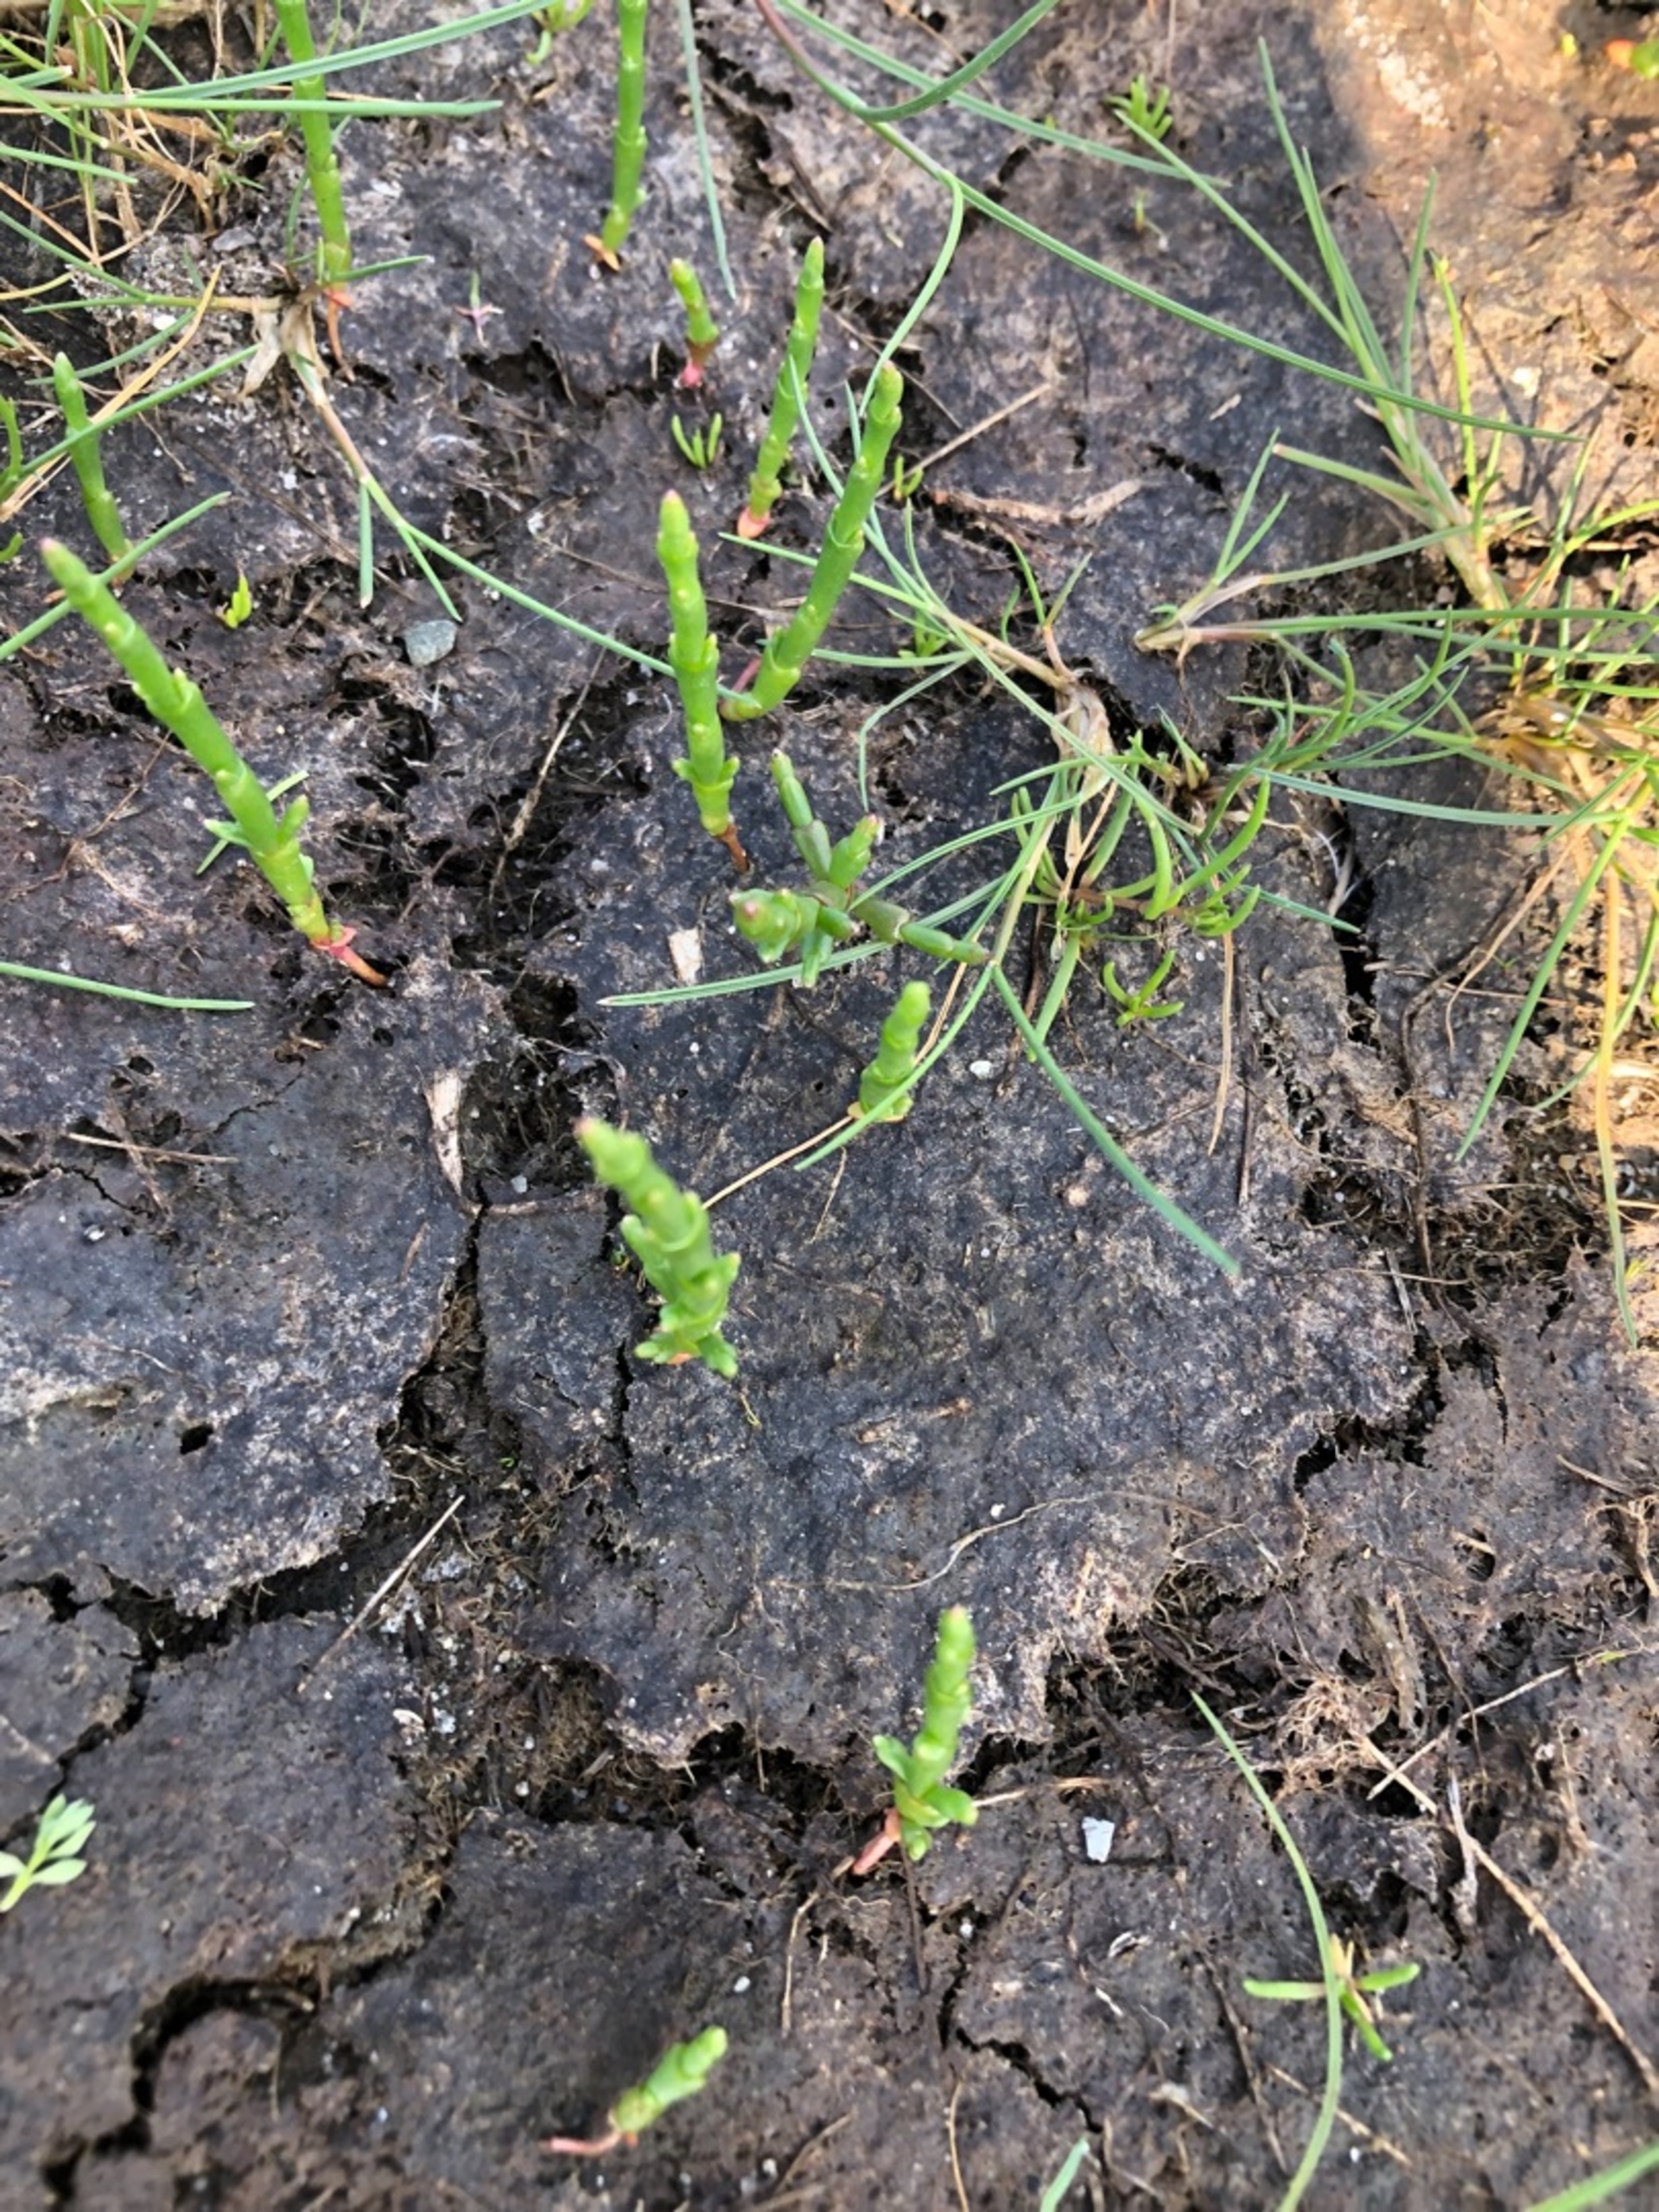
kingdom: Plantae
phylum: Tracheophyta
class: Magnoliopsida
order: Caryophyllales
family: Amaranthaceae
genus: Salicornia
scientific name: Salicornia europaea
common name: Almindelig salturt
